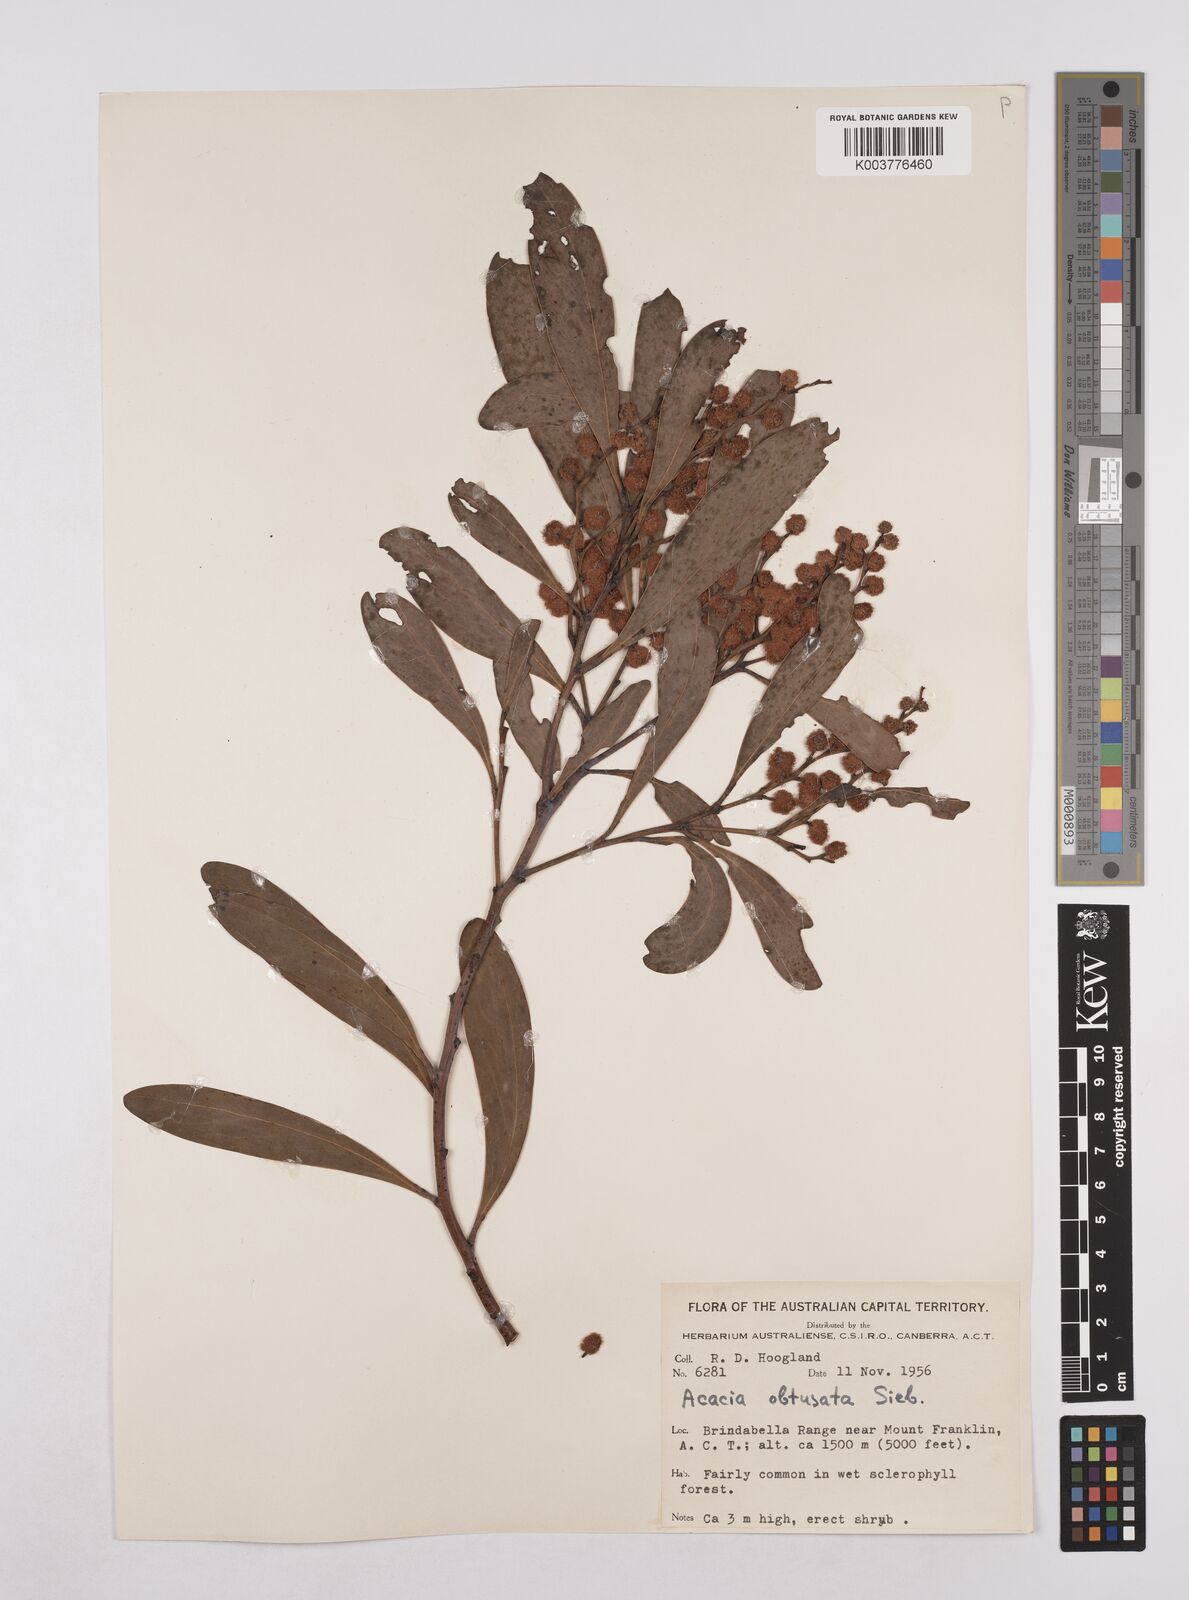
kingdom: Plantae
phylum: Tracheophyta
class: Magnoliopsida
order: Fabales
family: Fabaceae
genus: Acacia
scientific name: Acacia obtusata
